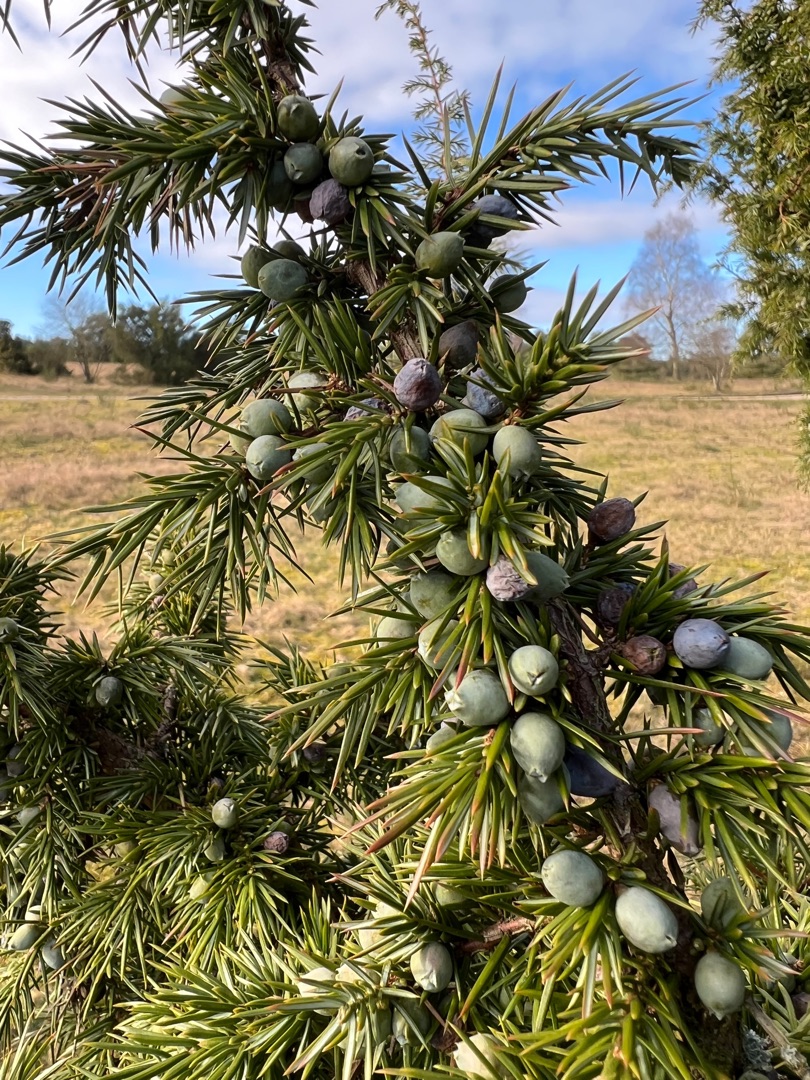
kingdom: Plantae
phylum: Tracheophyta
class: Pinopsida
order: Pinales
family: Cupressaceae
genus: Juniperus
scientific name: Juniperus communis
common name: Almindelig ene
